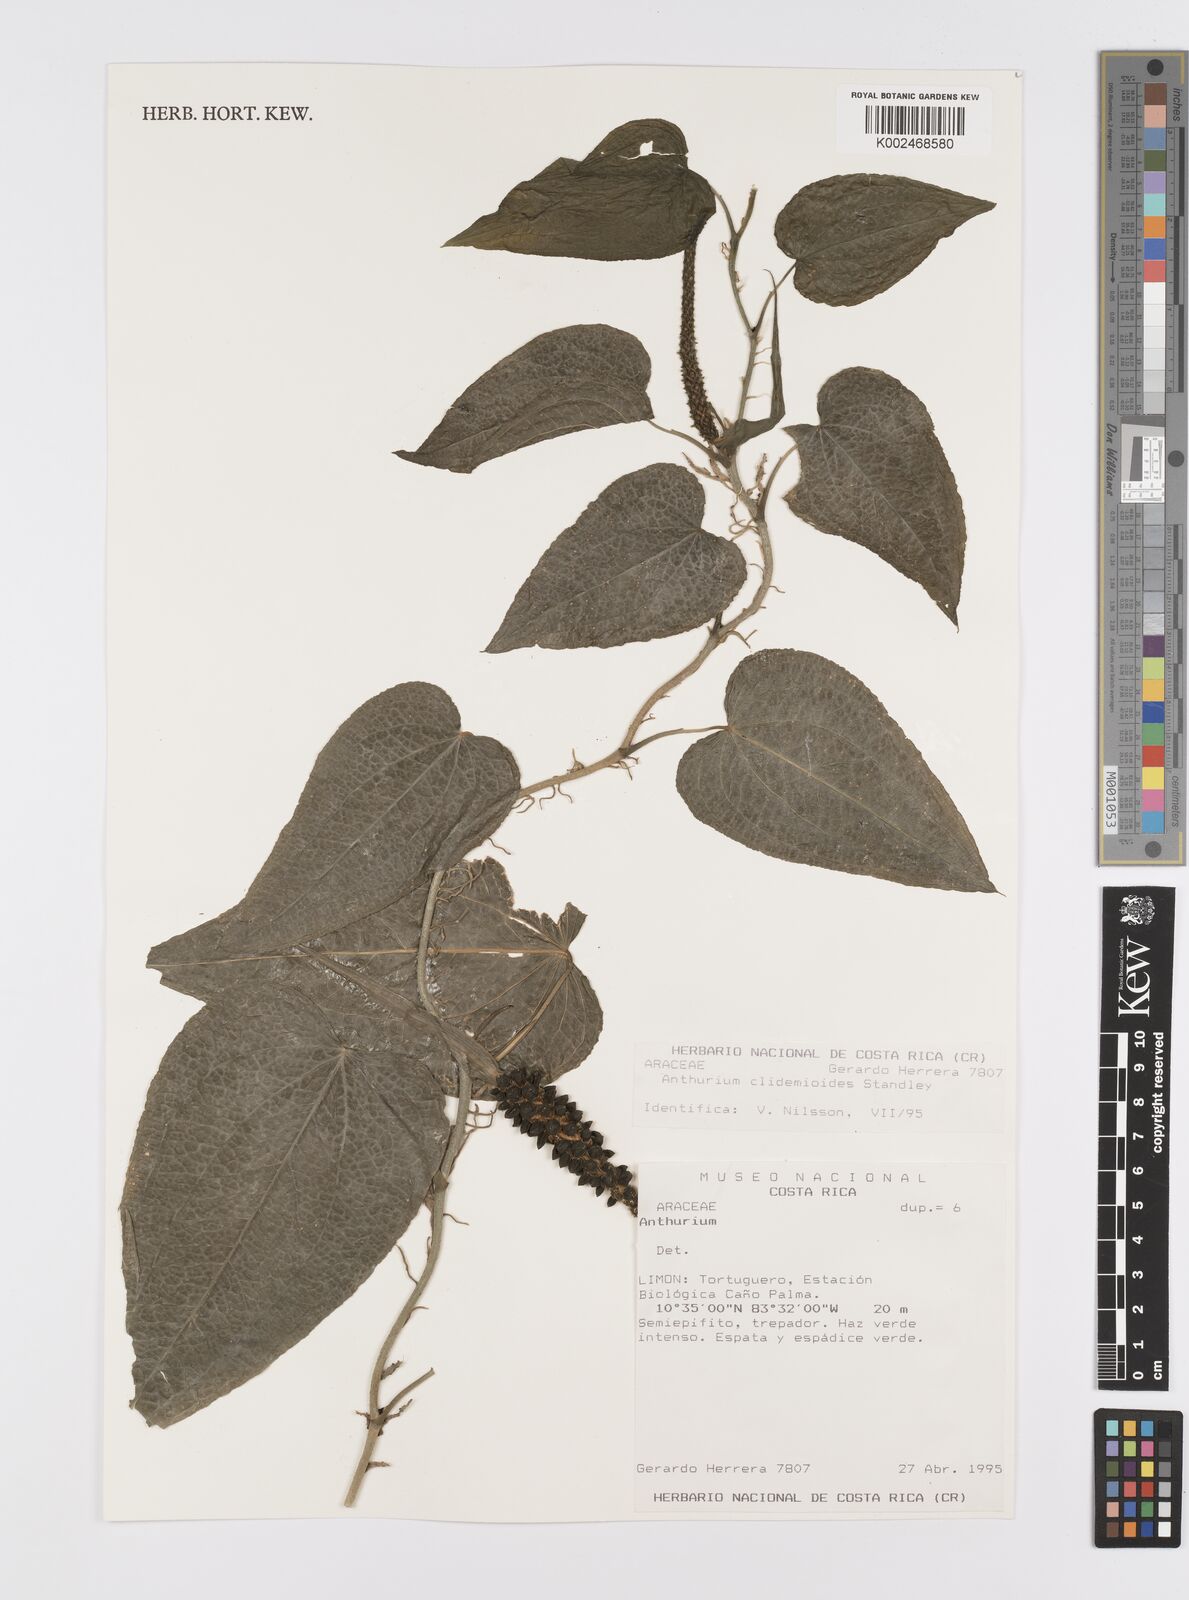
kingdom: Plantae
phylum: Tracheophyta
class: Liliopsida
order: Alismatales
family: Araceae
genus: Anthurium
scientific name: Anthurium clidemioides
